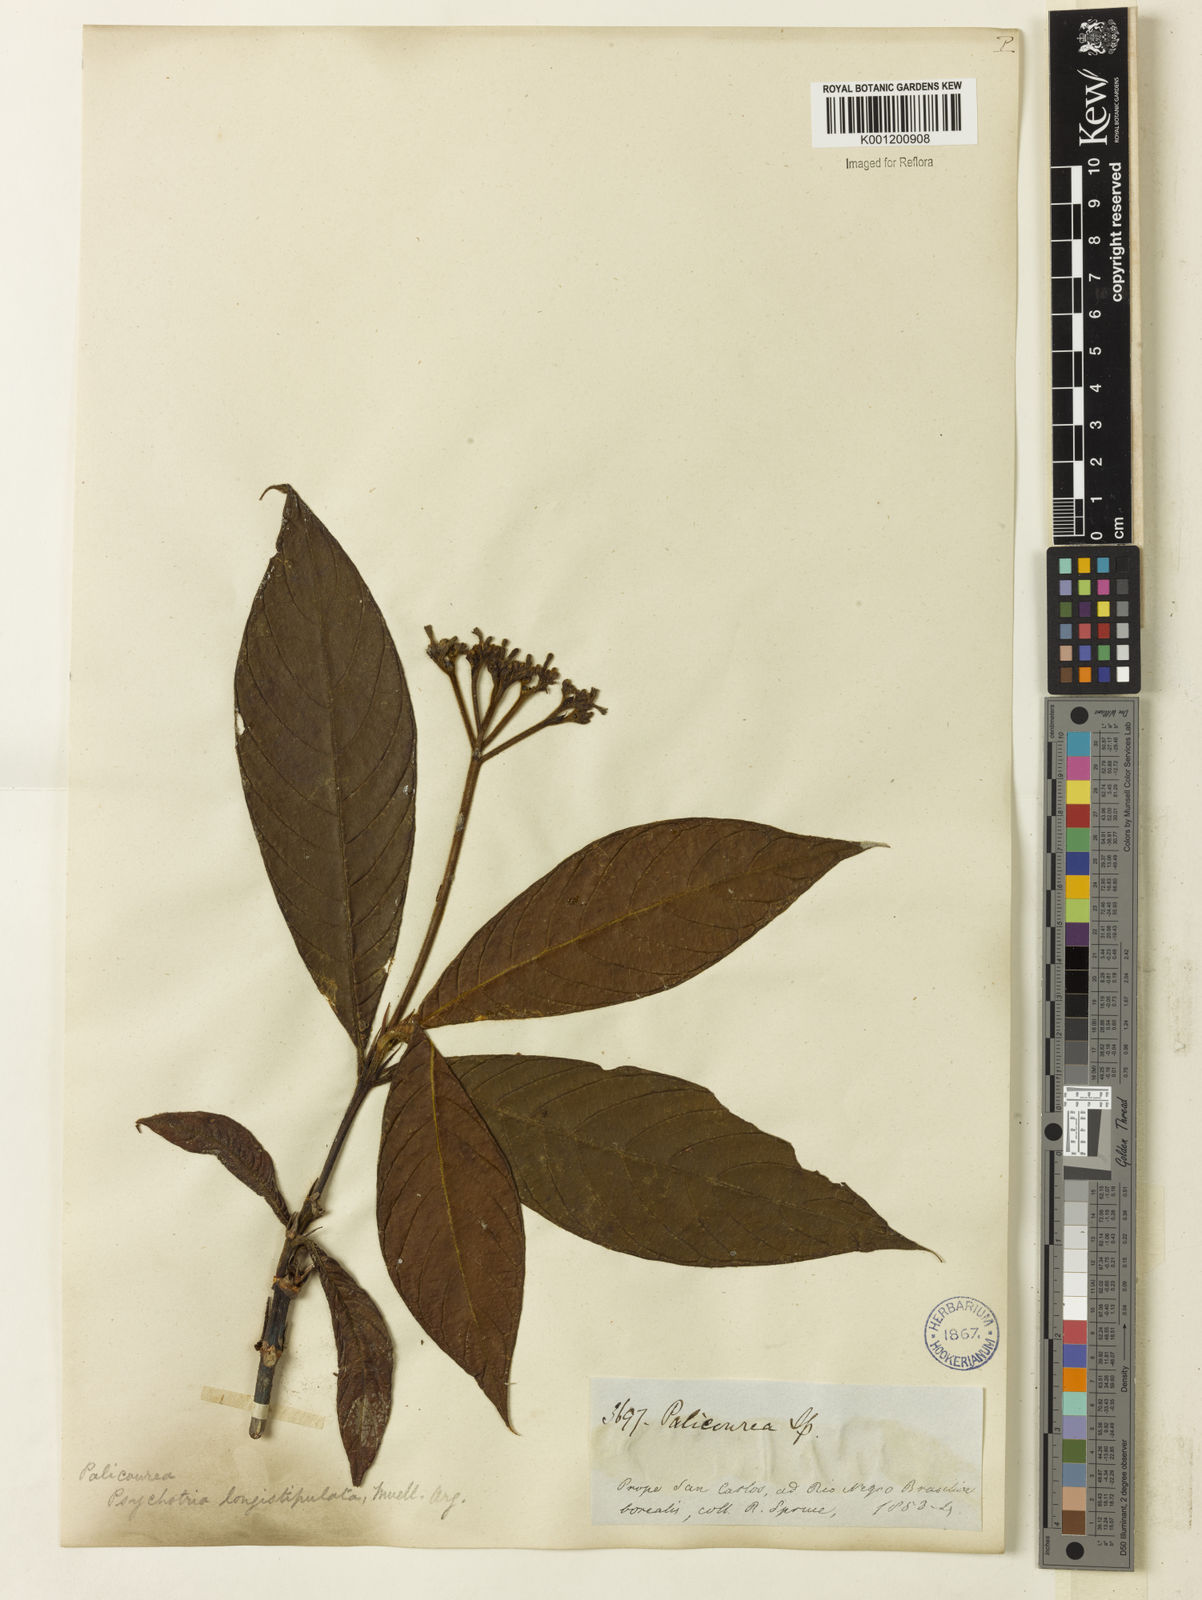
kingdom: Plantae
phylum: Tracheophyta
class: Magnoliopsida
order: Gentianales
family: Rubiaceae
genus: Palicourea
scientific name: Palicourea longistipulata
